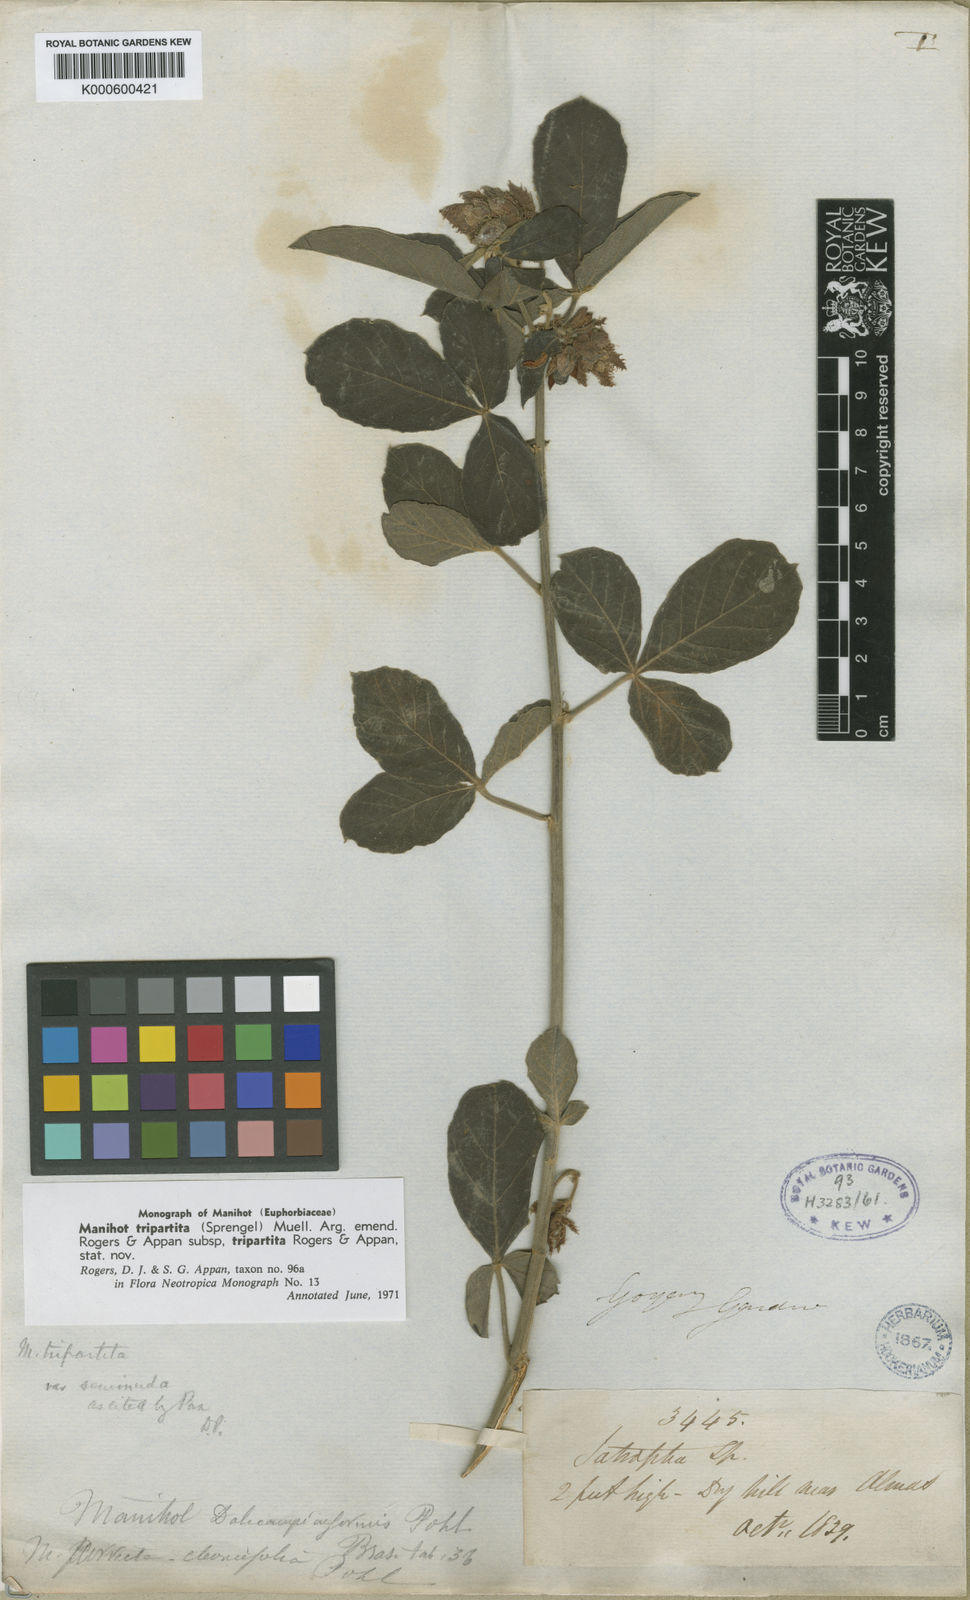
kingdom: Plantae
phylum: Tracheophyta
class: Magnoliopsida
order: Malpighiales
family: Euphorbiaceae
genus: Manihot
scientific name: Manihot tripartita
